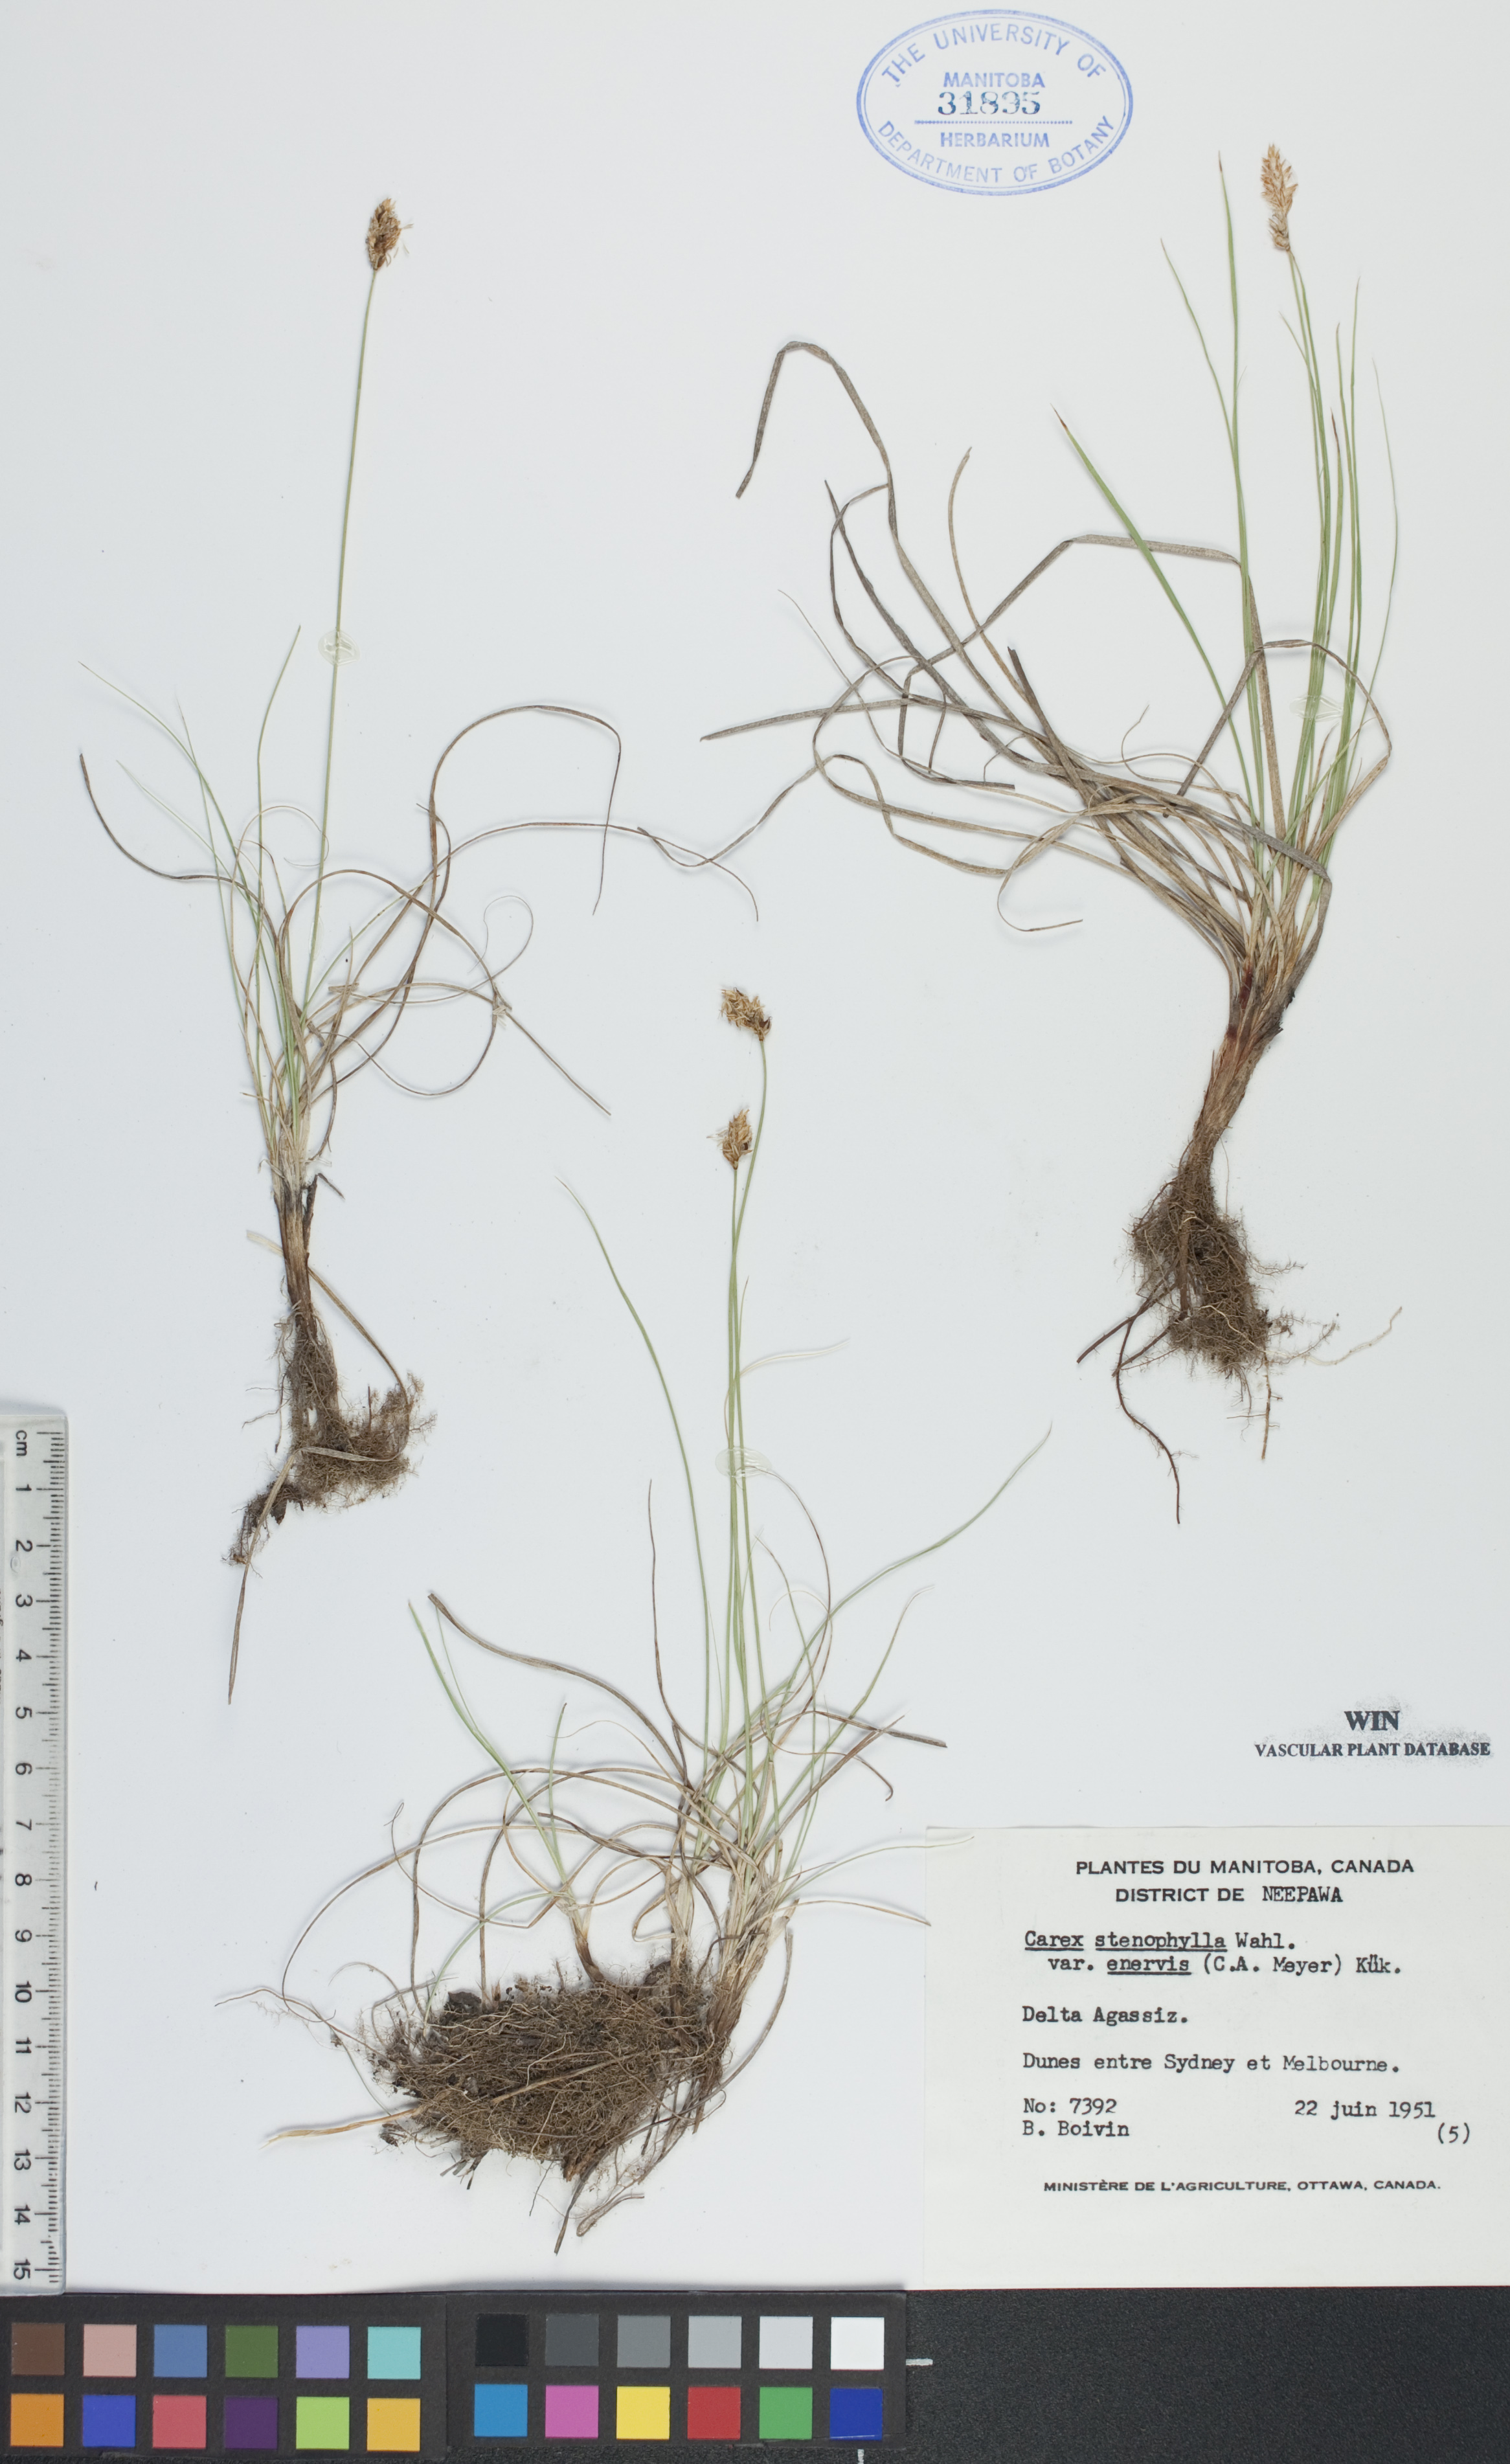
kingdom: Plantae
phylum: Tracheophyta
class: Liliopsida
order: Poales
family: Cyperaceae
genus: Carex
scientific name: Carex enervis
